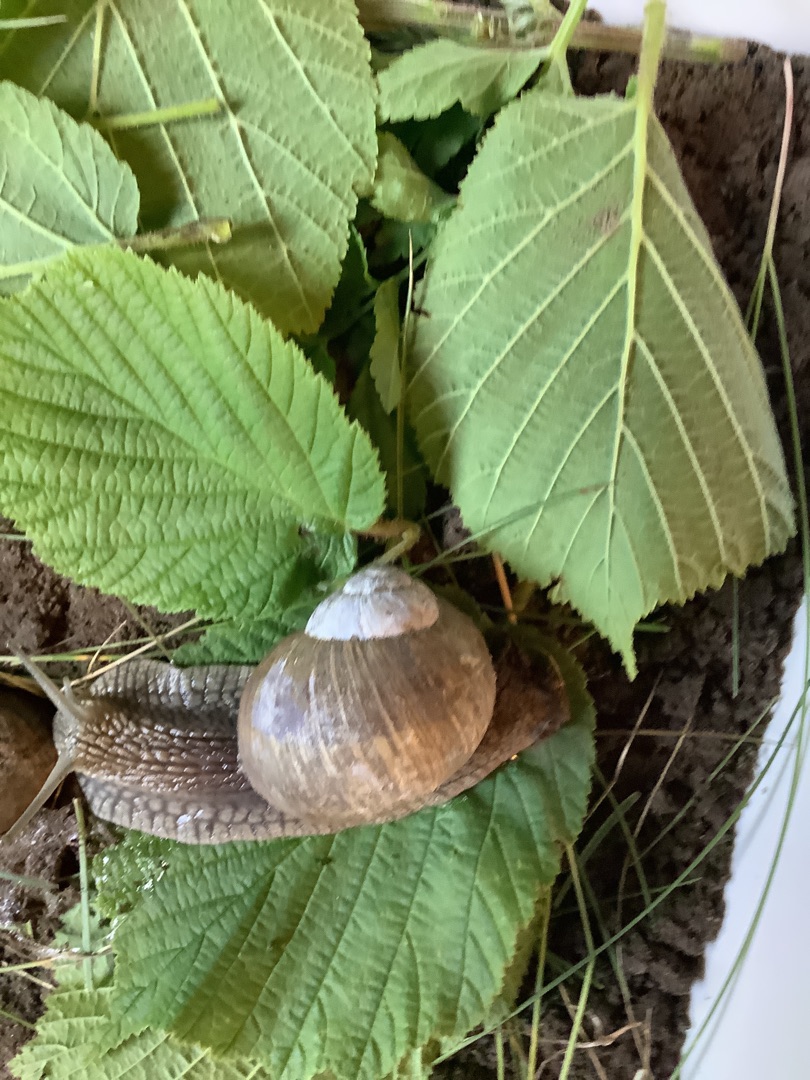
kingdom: Animalia
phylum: Mollusca
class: Gastropoda
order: Stylommatophora
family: Helicidae
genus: Helix
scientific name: Helix pomatia
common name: Vinbjergsnegl
